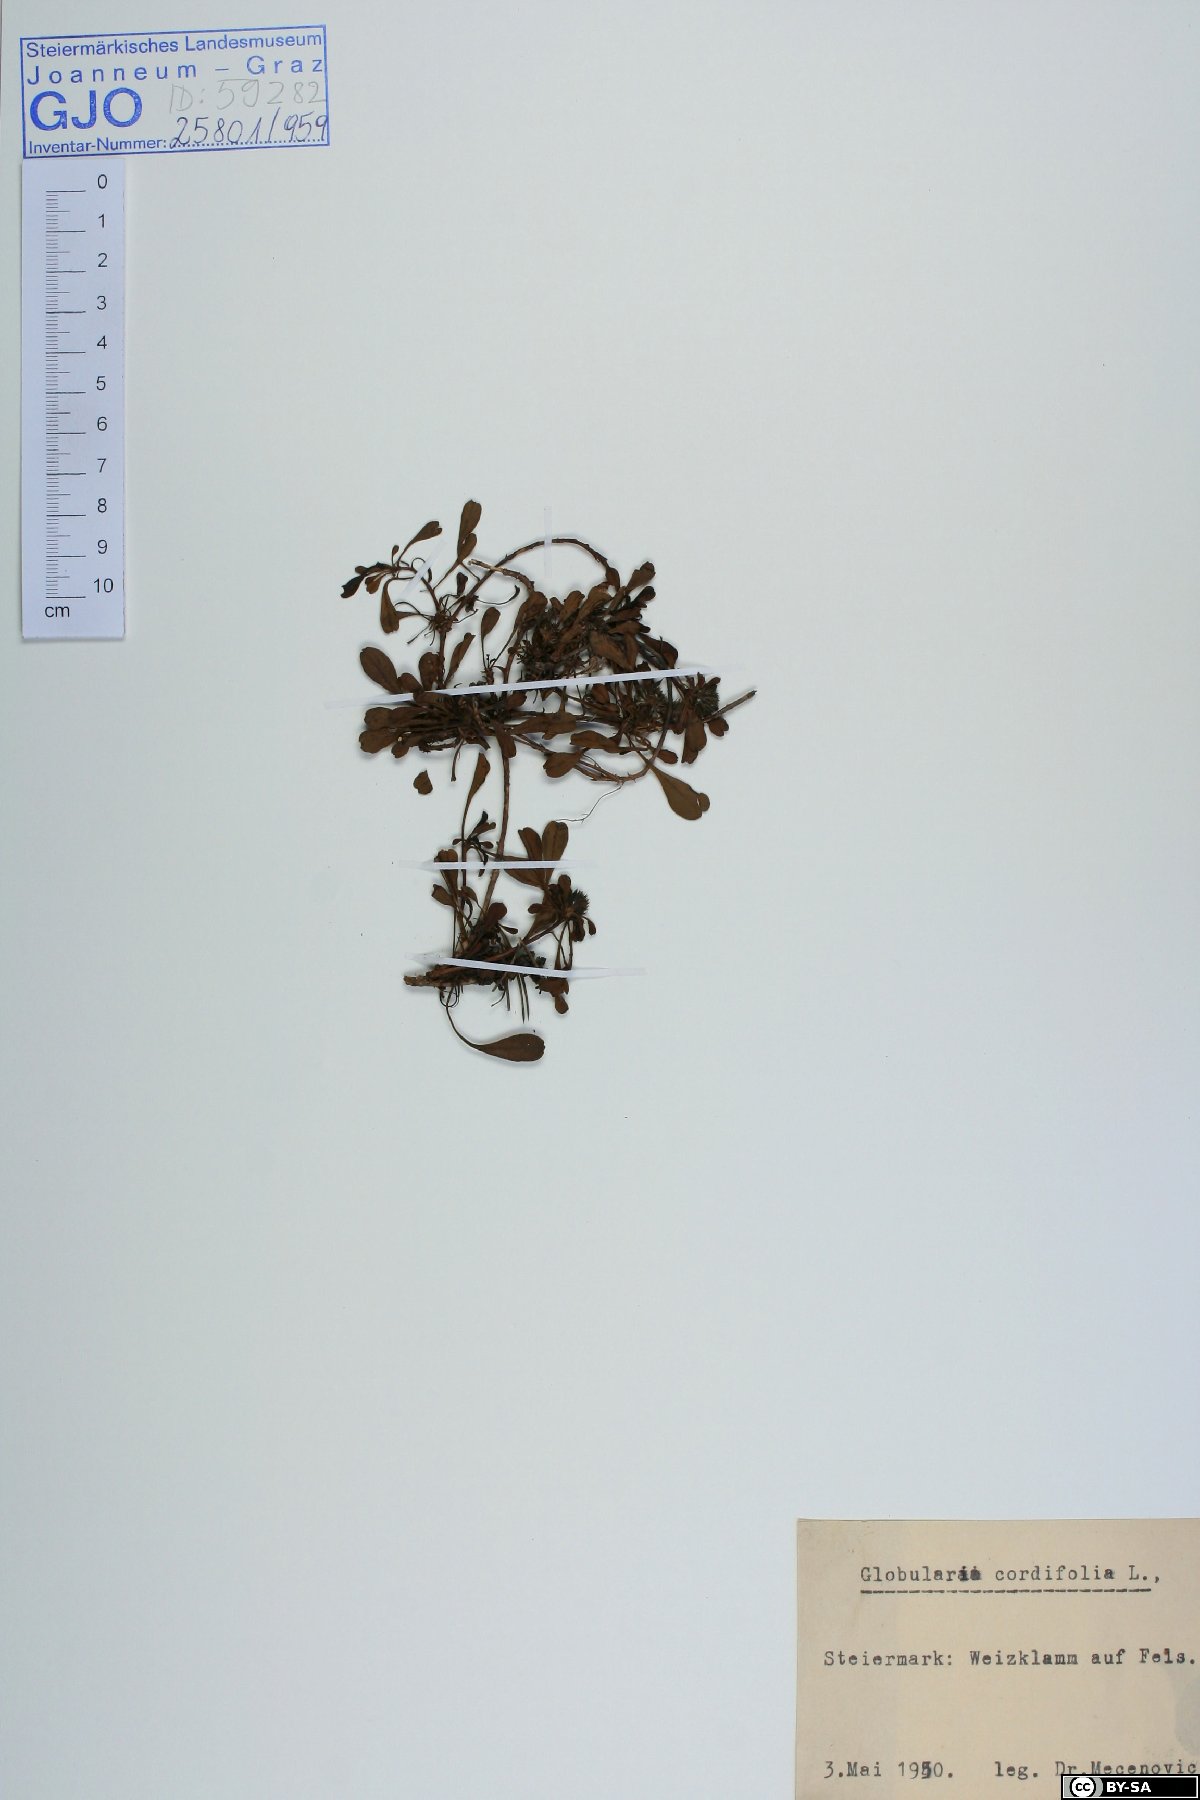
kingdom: Plantae
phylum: Tracheophyta
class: Magnoliopsida
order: Lamiales
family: Plantaginaceae
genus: Globularia
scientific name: Globularia cordifolia
